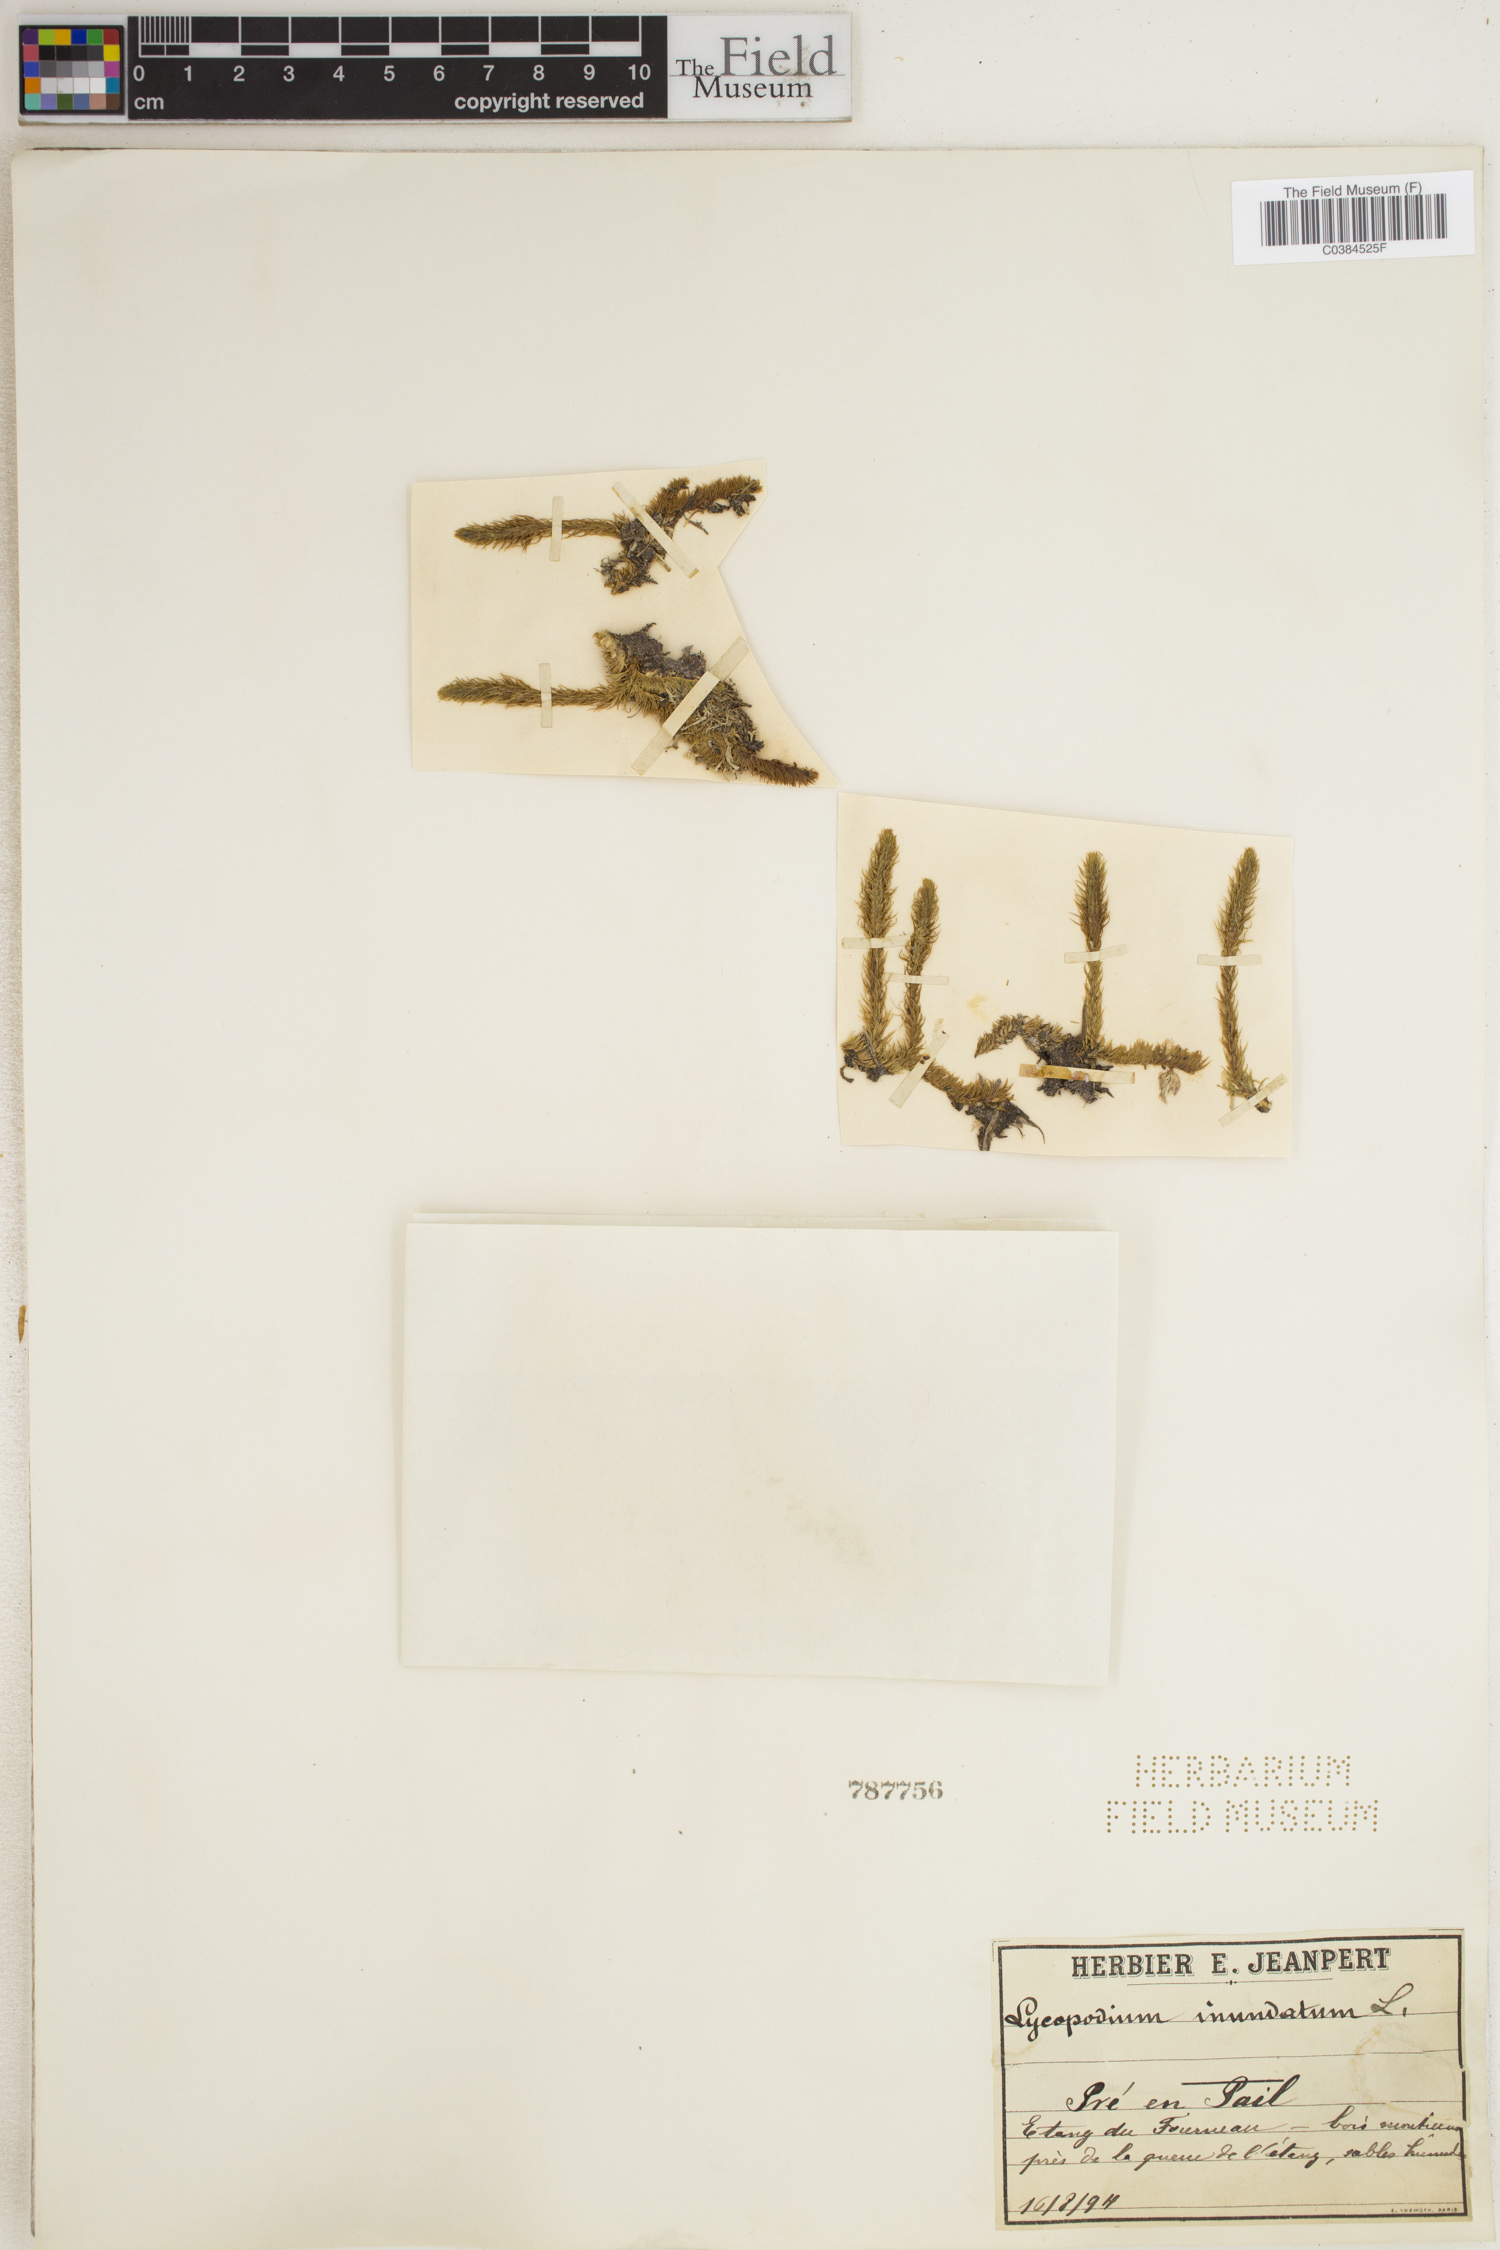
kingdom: Plantae
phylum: Tracheophyta
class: Lycopodiopsida
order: Lycopodiales
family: Lycopodiaceae
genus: Lycopodiella
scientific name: Lycopodiella inundata
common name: Marsh clubmoss
